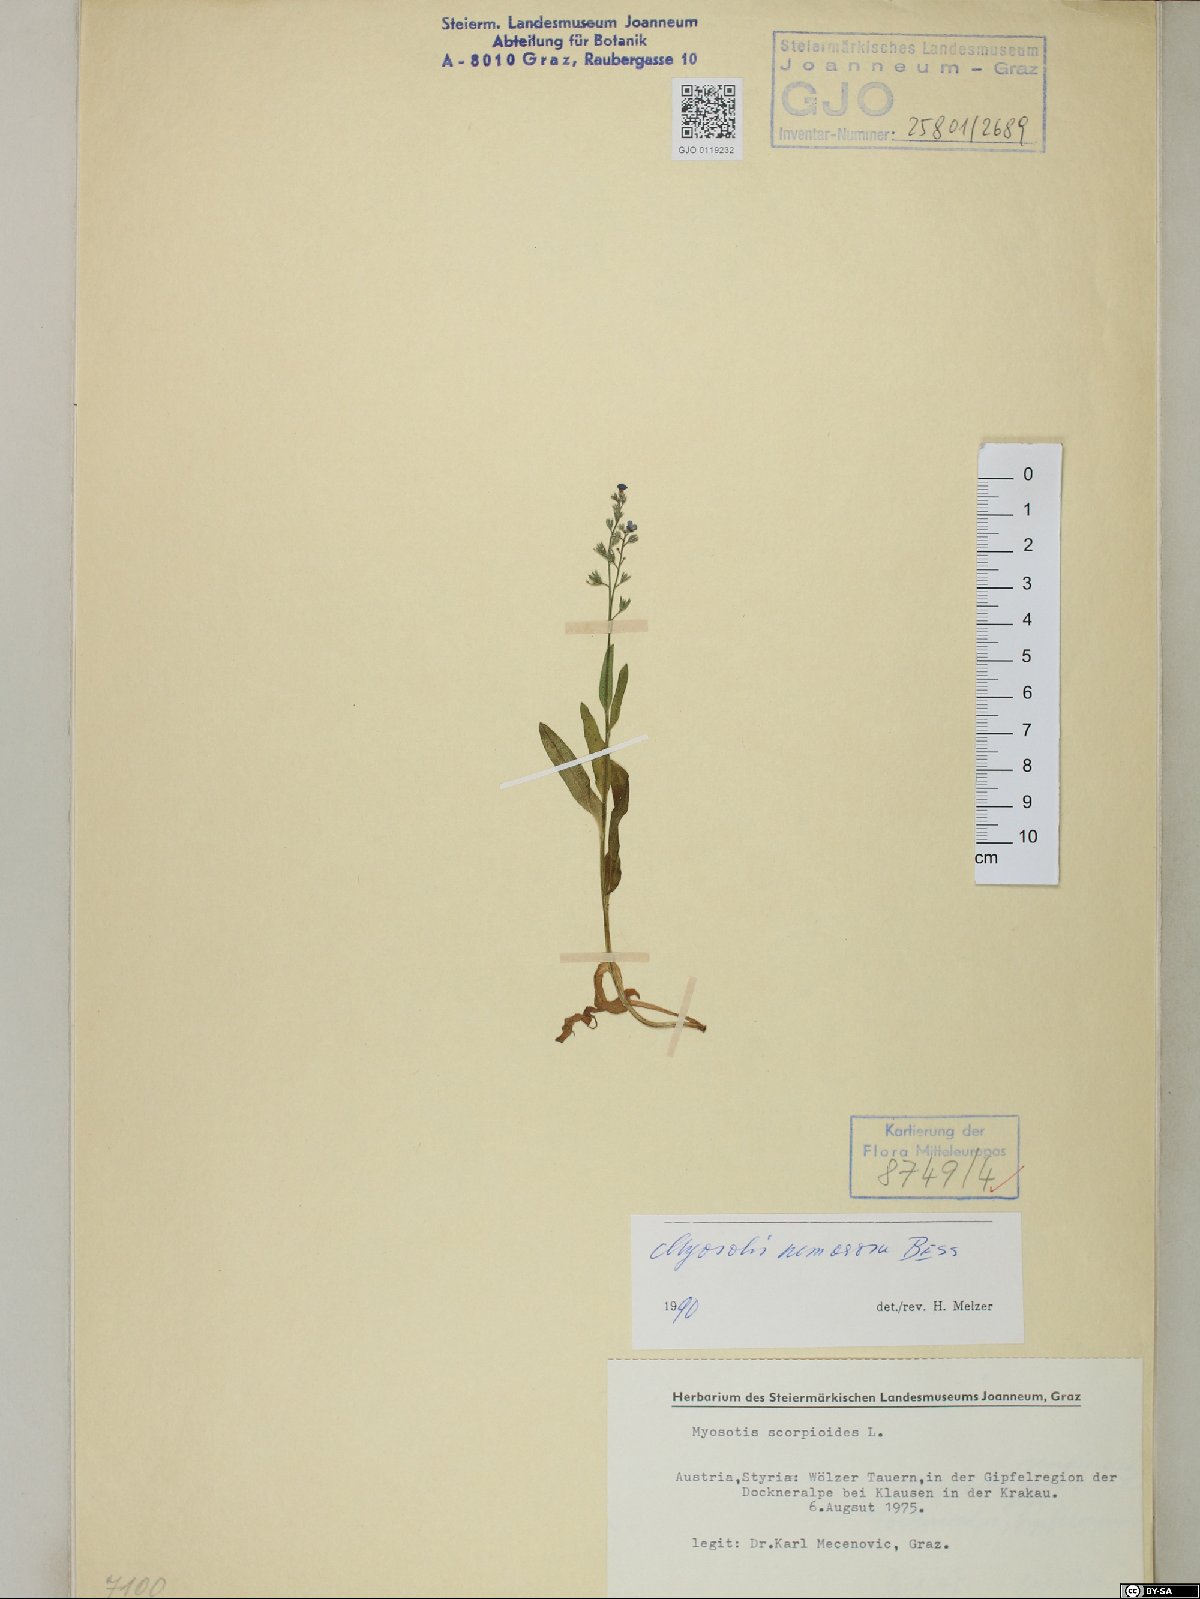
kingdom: Plantae
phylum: Tracheophyta
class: Magnoliopsida
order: Boraginales
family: Boraginaceae
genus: Myosotis
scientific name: Myosotis nemorosa
